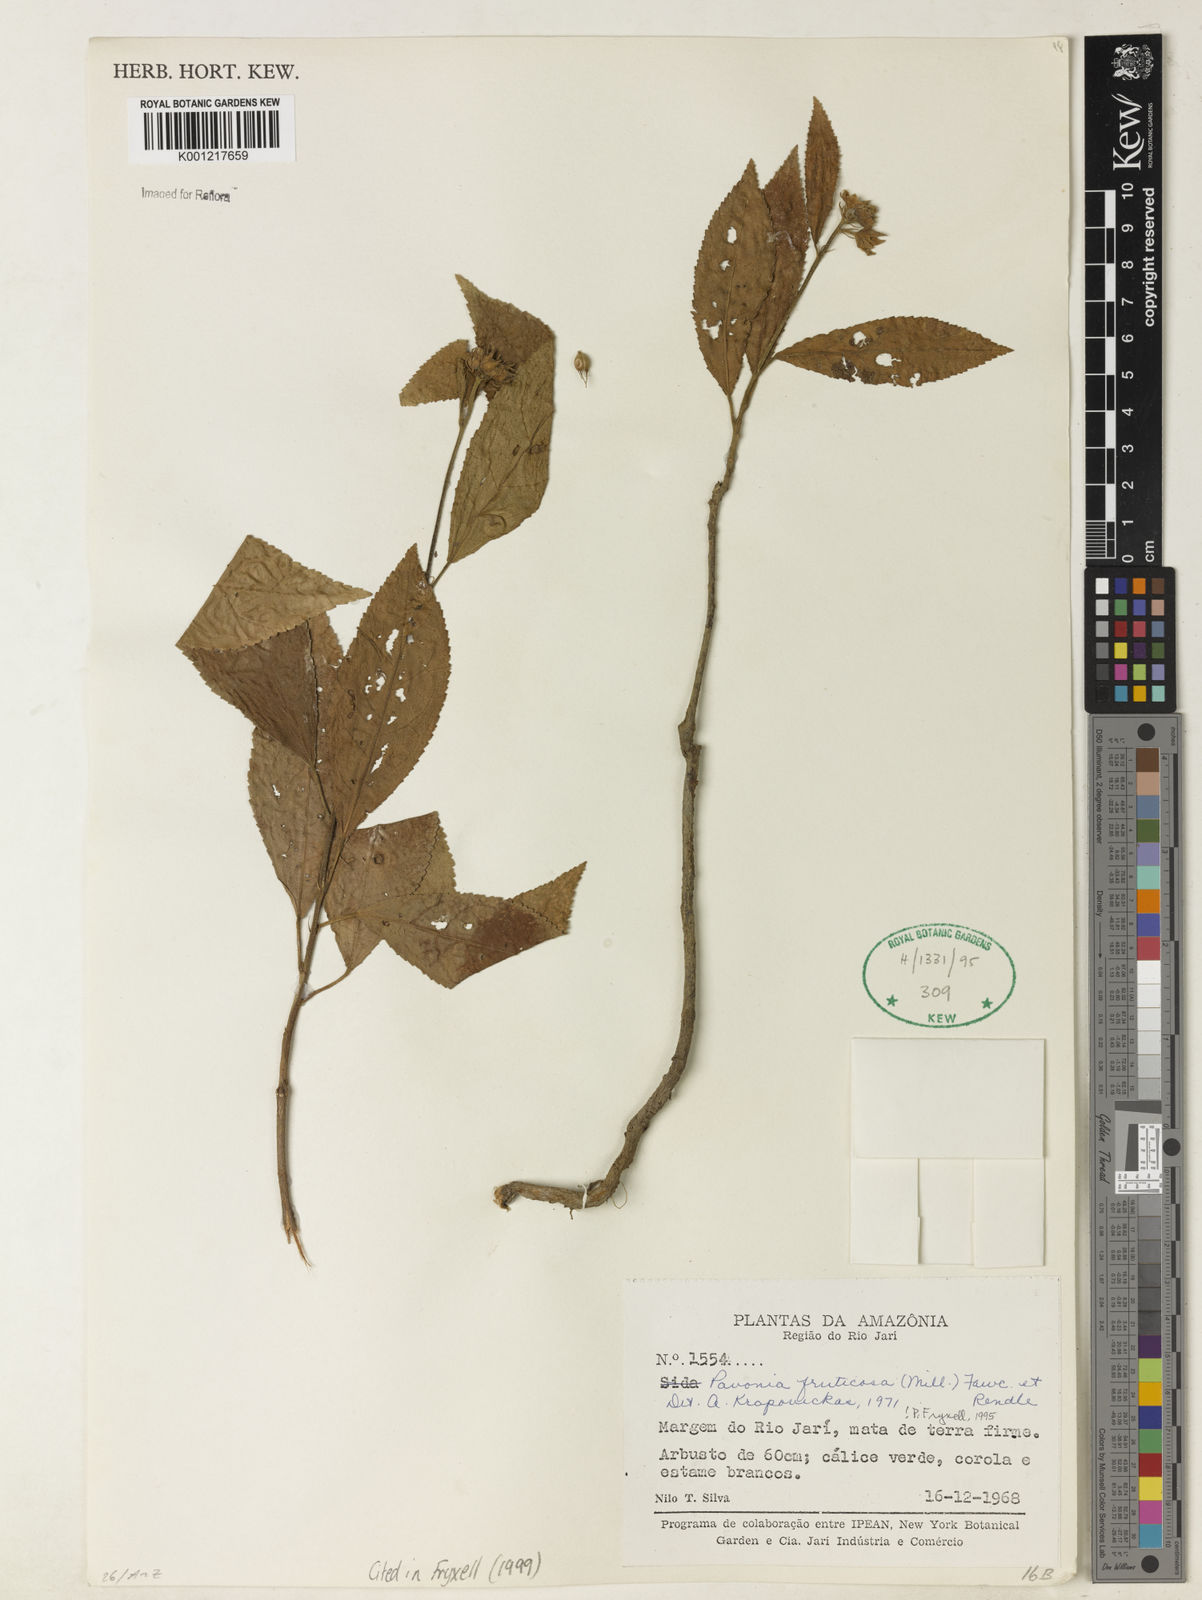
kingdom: Plantae
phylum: Tracheophyta
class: Magnoliopsida
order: Malvales
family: Malvaceae
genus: Pavonia
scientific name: Pavonia fruticosa
